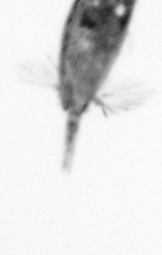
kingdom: Animalia
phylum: Arthropoda
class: Maxillopoda
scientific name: Maxillopoda
